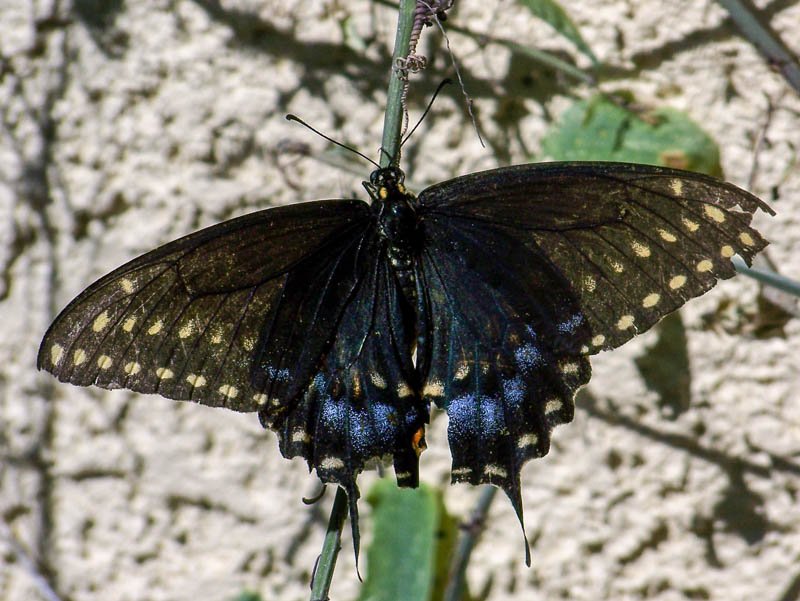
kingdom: Animalia
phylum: Arthropoda
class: Insecta
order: Lepidoptera
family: Papilionidae
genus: Papilio
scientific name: Papilio polyxenes
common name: Black Swallowtail
